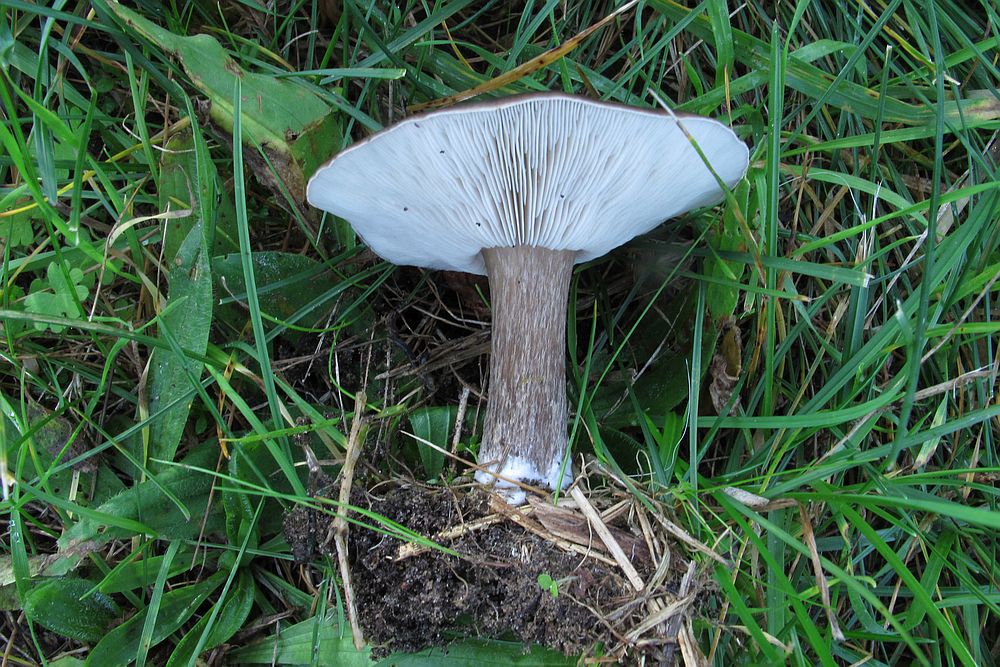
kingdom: Fungi
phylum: Basidiomycota
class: Agaricomycetes
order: Agaricales
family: Tricholomataceae
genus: Melanoleuca
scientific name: Melanoleuca exscissa
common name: gusten munkehat
